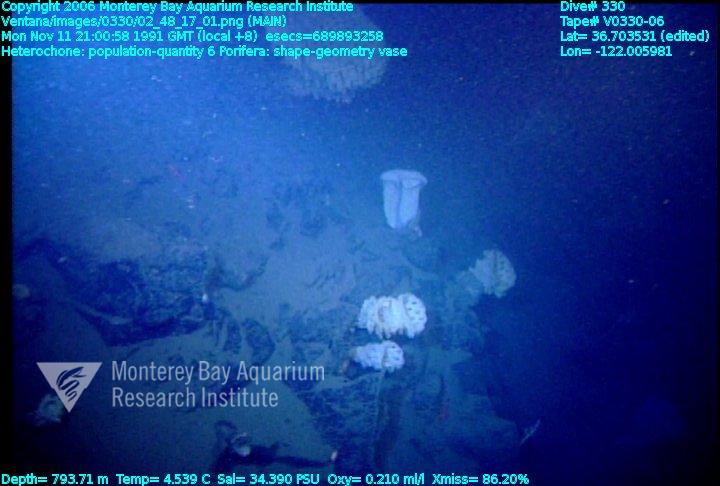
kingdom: Animalia
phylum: Porifera
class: Hexactinellida
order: Sceptrulophora
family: Aphrocallistidae
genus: Heterochone
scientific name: Heterochone
